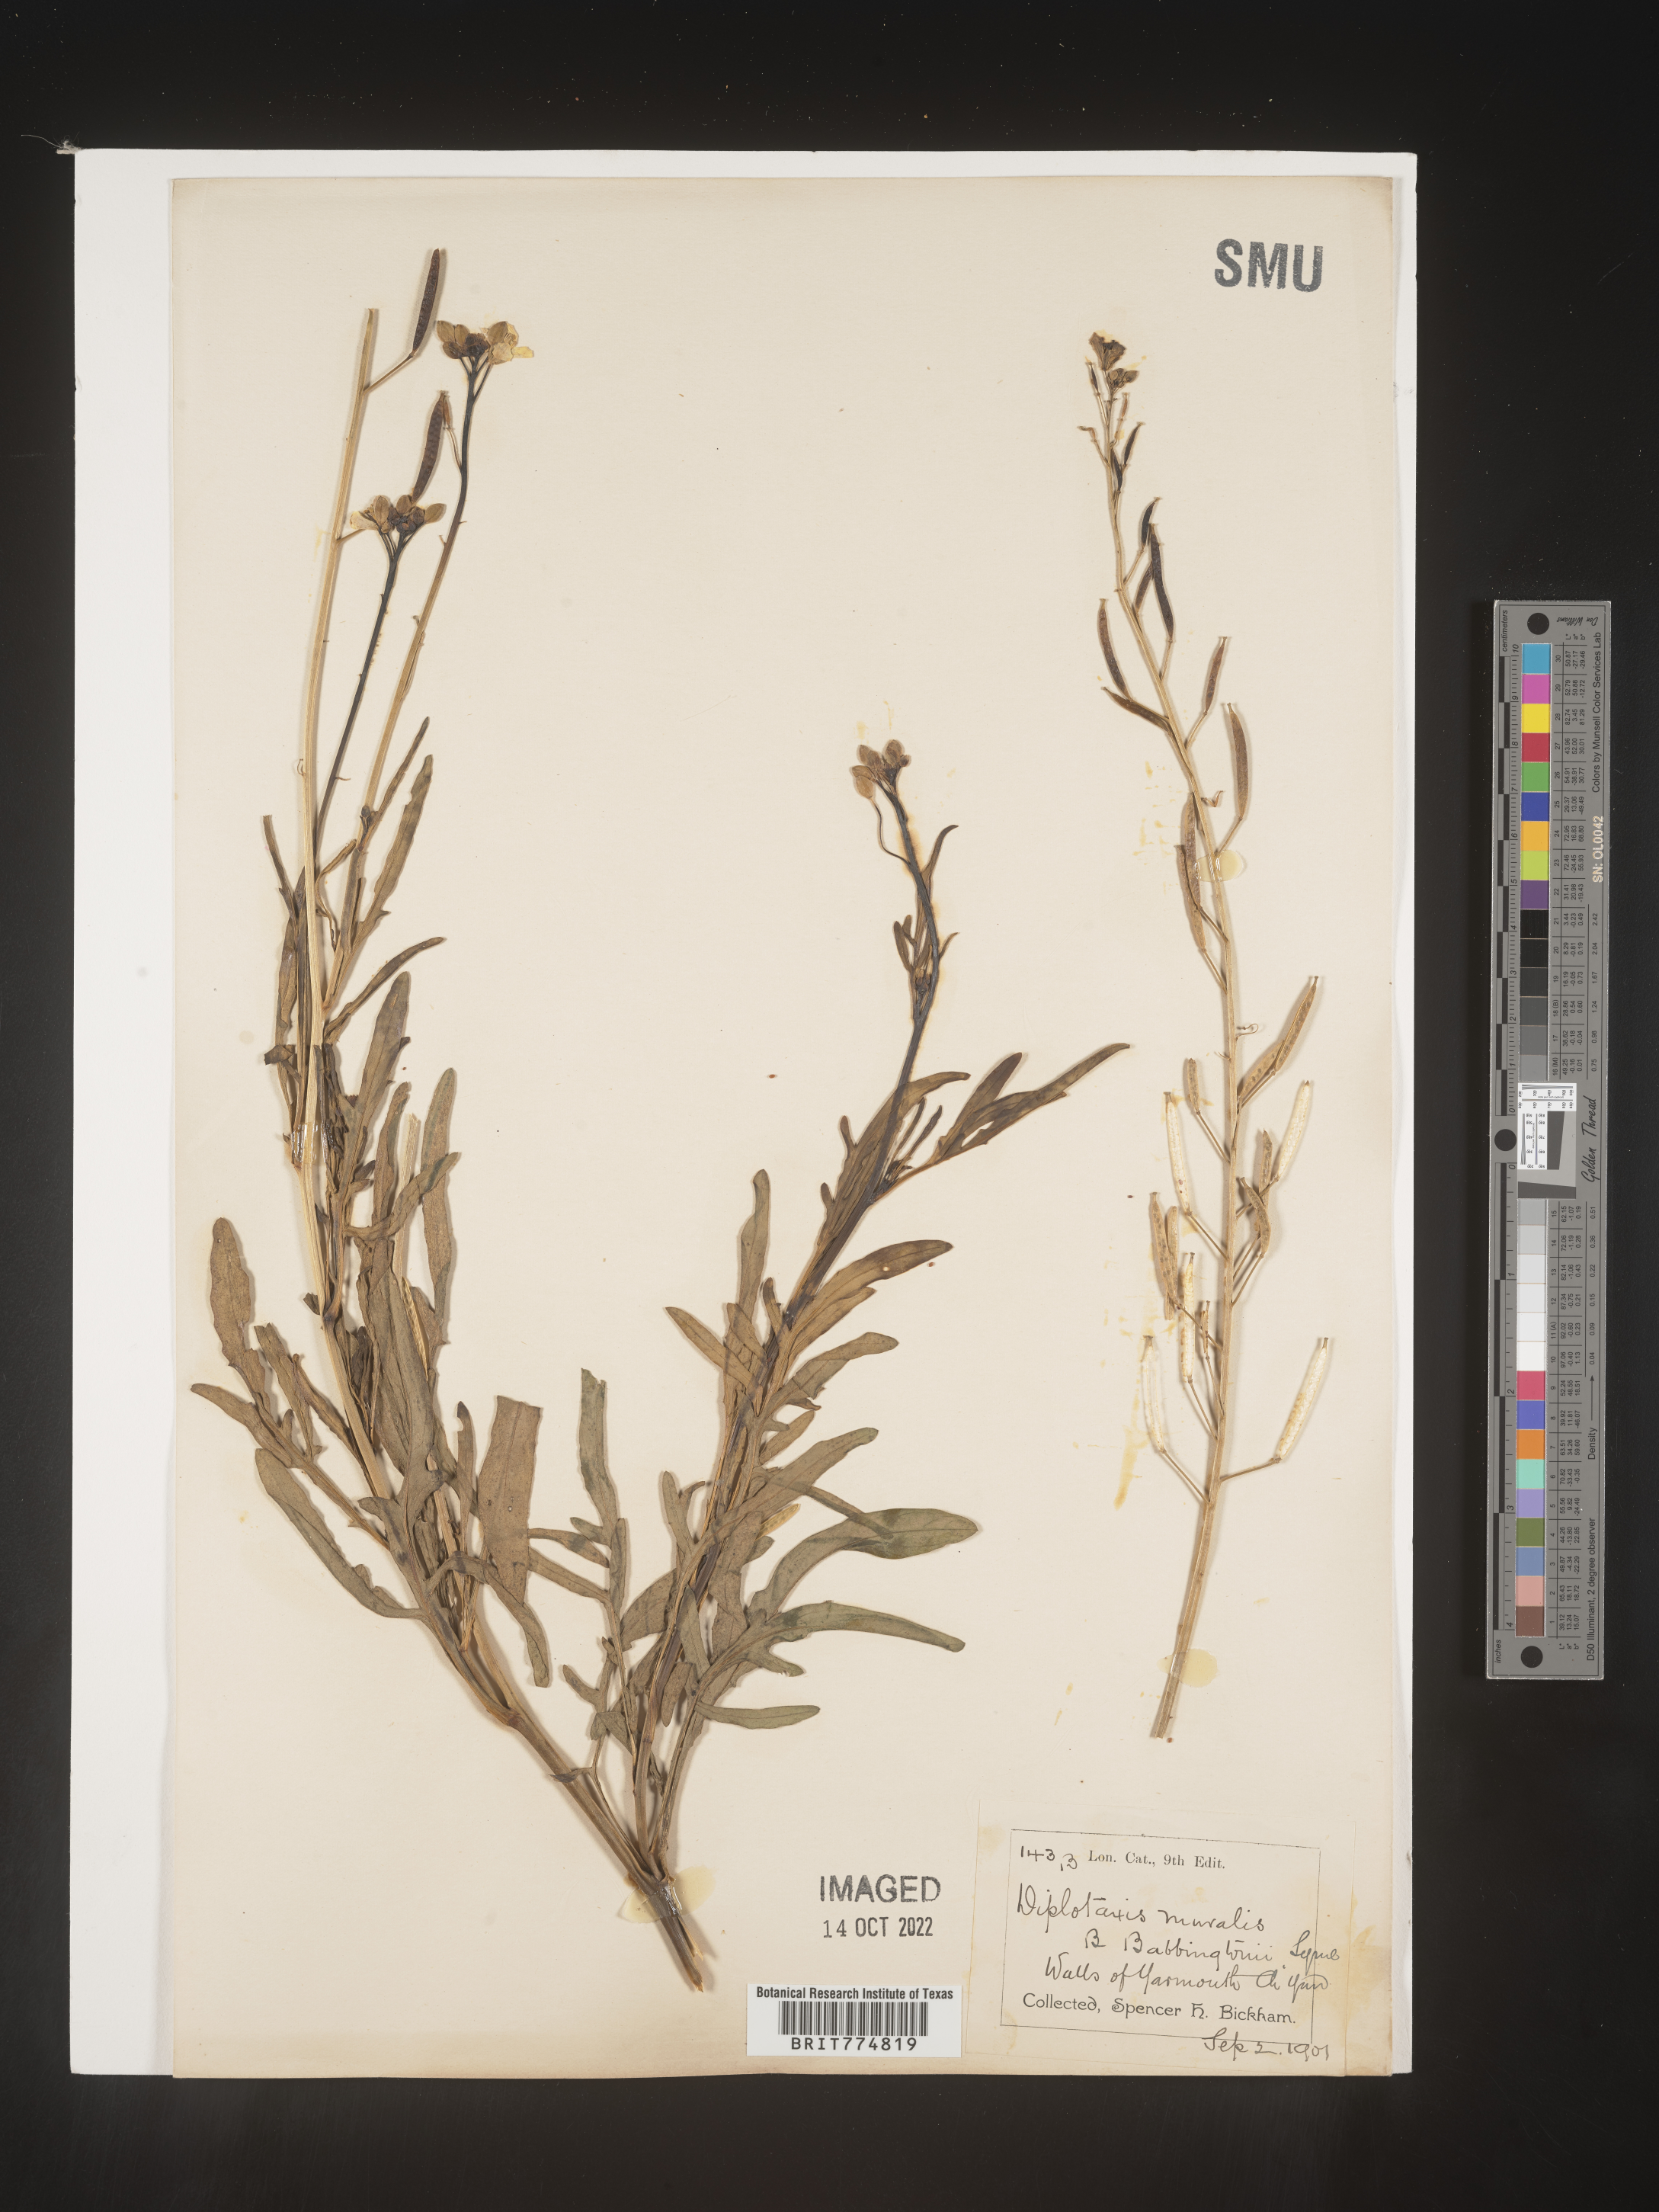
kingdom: Plantae
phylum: Tracheophyta
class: Magnoliopsida
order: Brassicales
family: Brassicaceae
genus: Diplotaxis
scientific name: Diplotaxis
